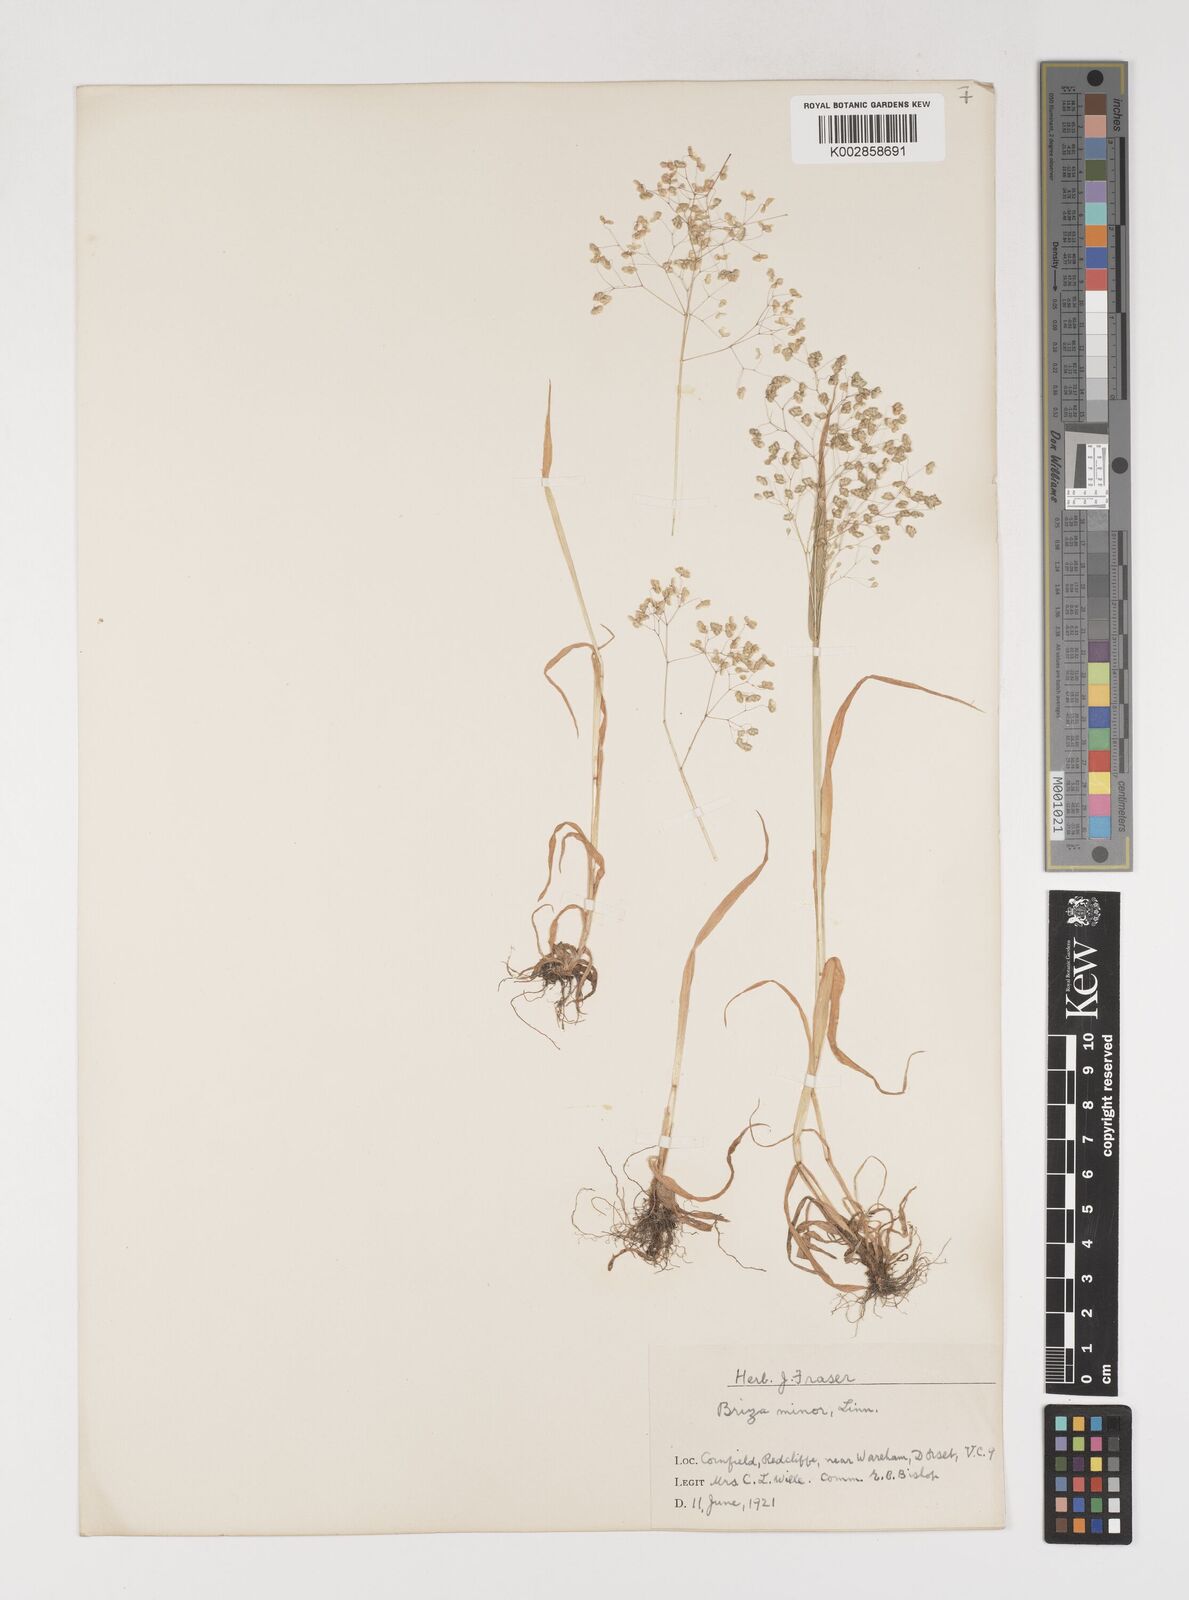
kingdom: Plantae
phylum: Tracheophyta
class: Liliopsida
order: Poales
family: Poaceae
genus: Briza
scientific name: Briza minor
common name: Lesser quaking-grass
